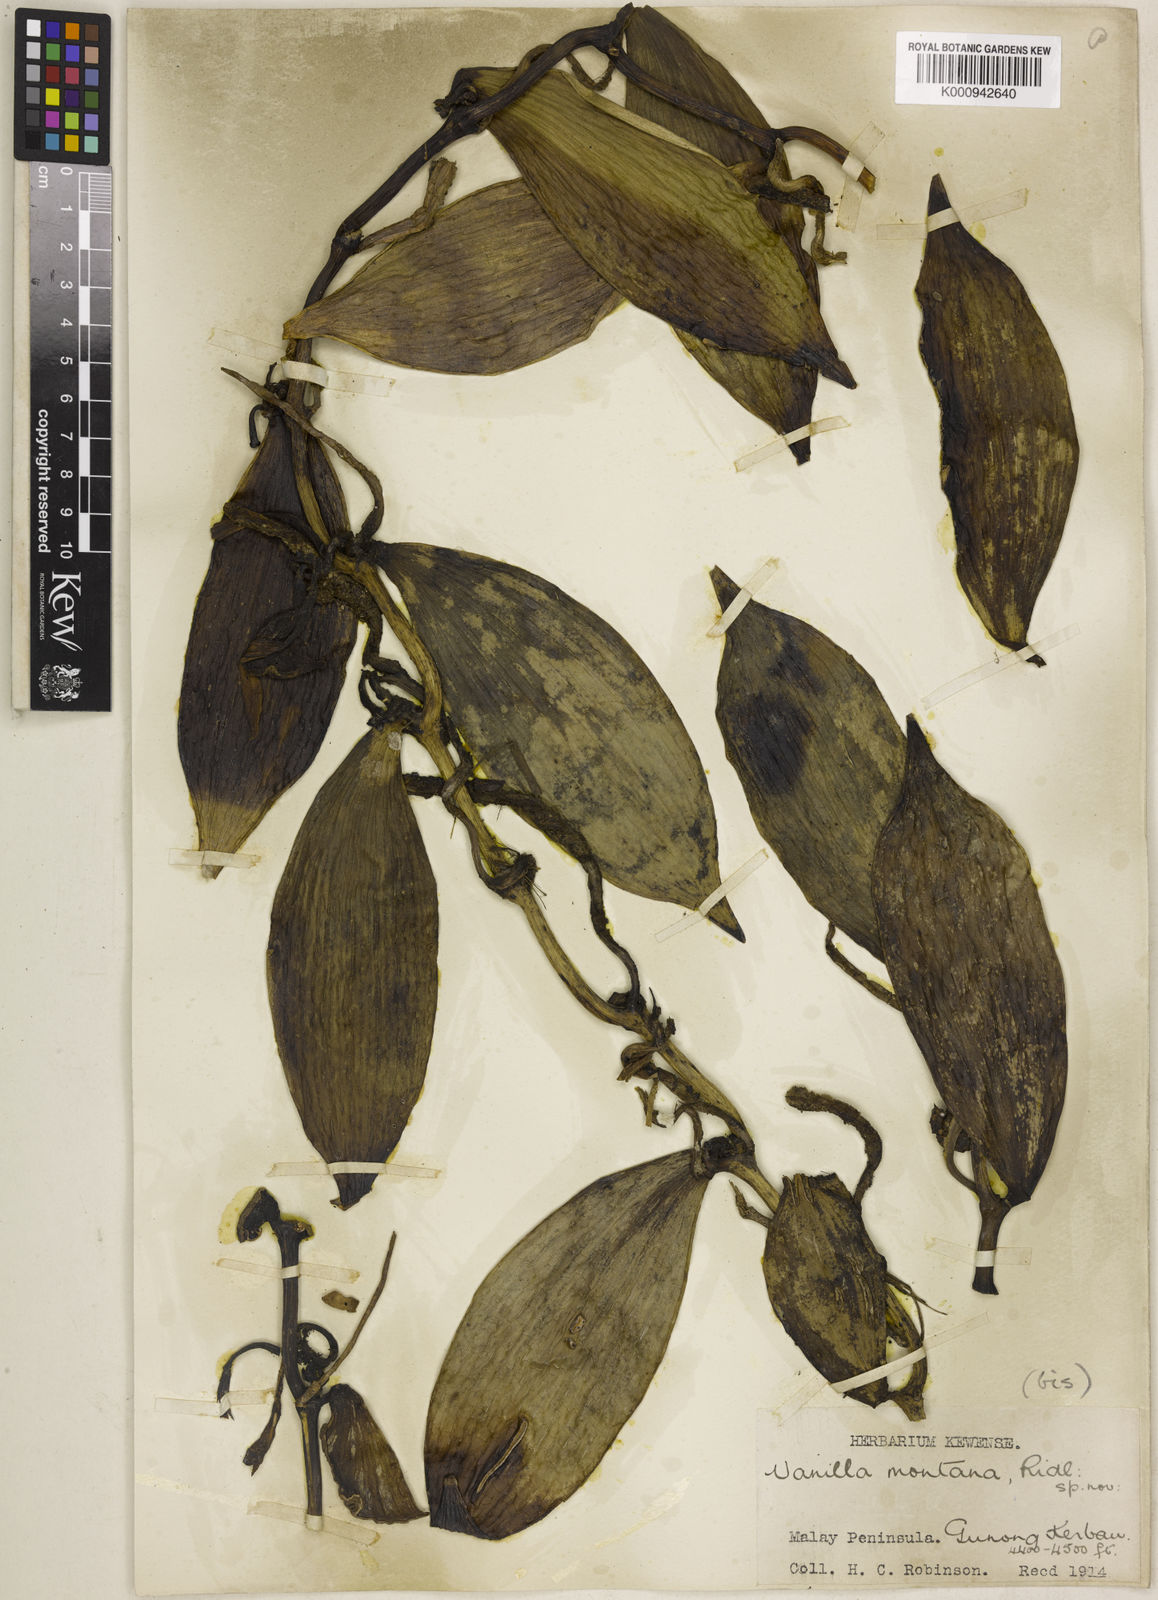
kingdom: Plantae
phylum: Tracheophyta
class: Liliopsida
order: Asparagales
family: Orchidaceae
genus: Vanilla
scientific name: Vanilla albida
